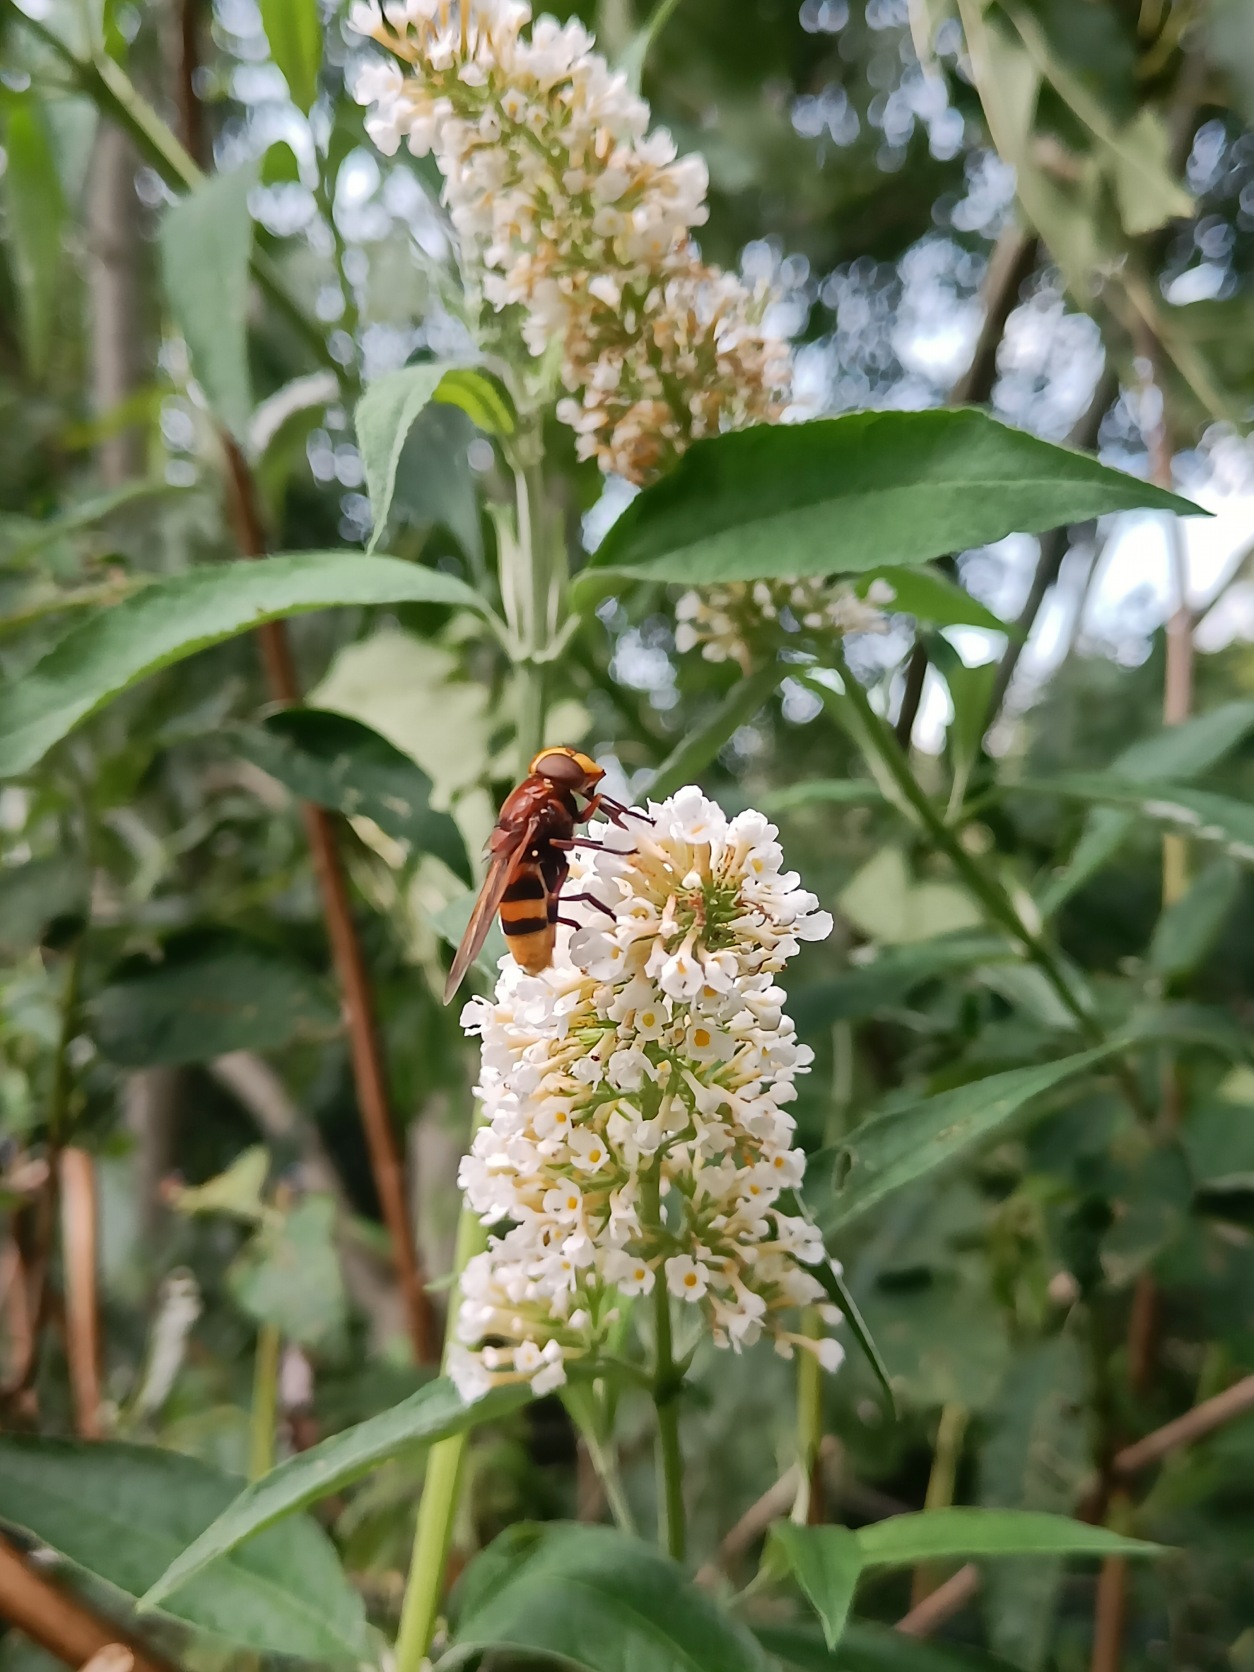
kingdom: Animalia
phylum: Arthropoda
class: Insecta
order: Diptera
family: Syrphidae
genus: Volucella
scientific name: Volucella zonaria
